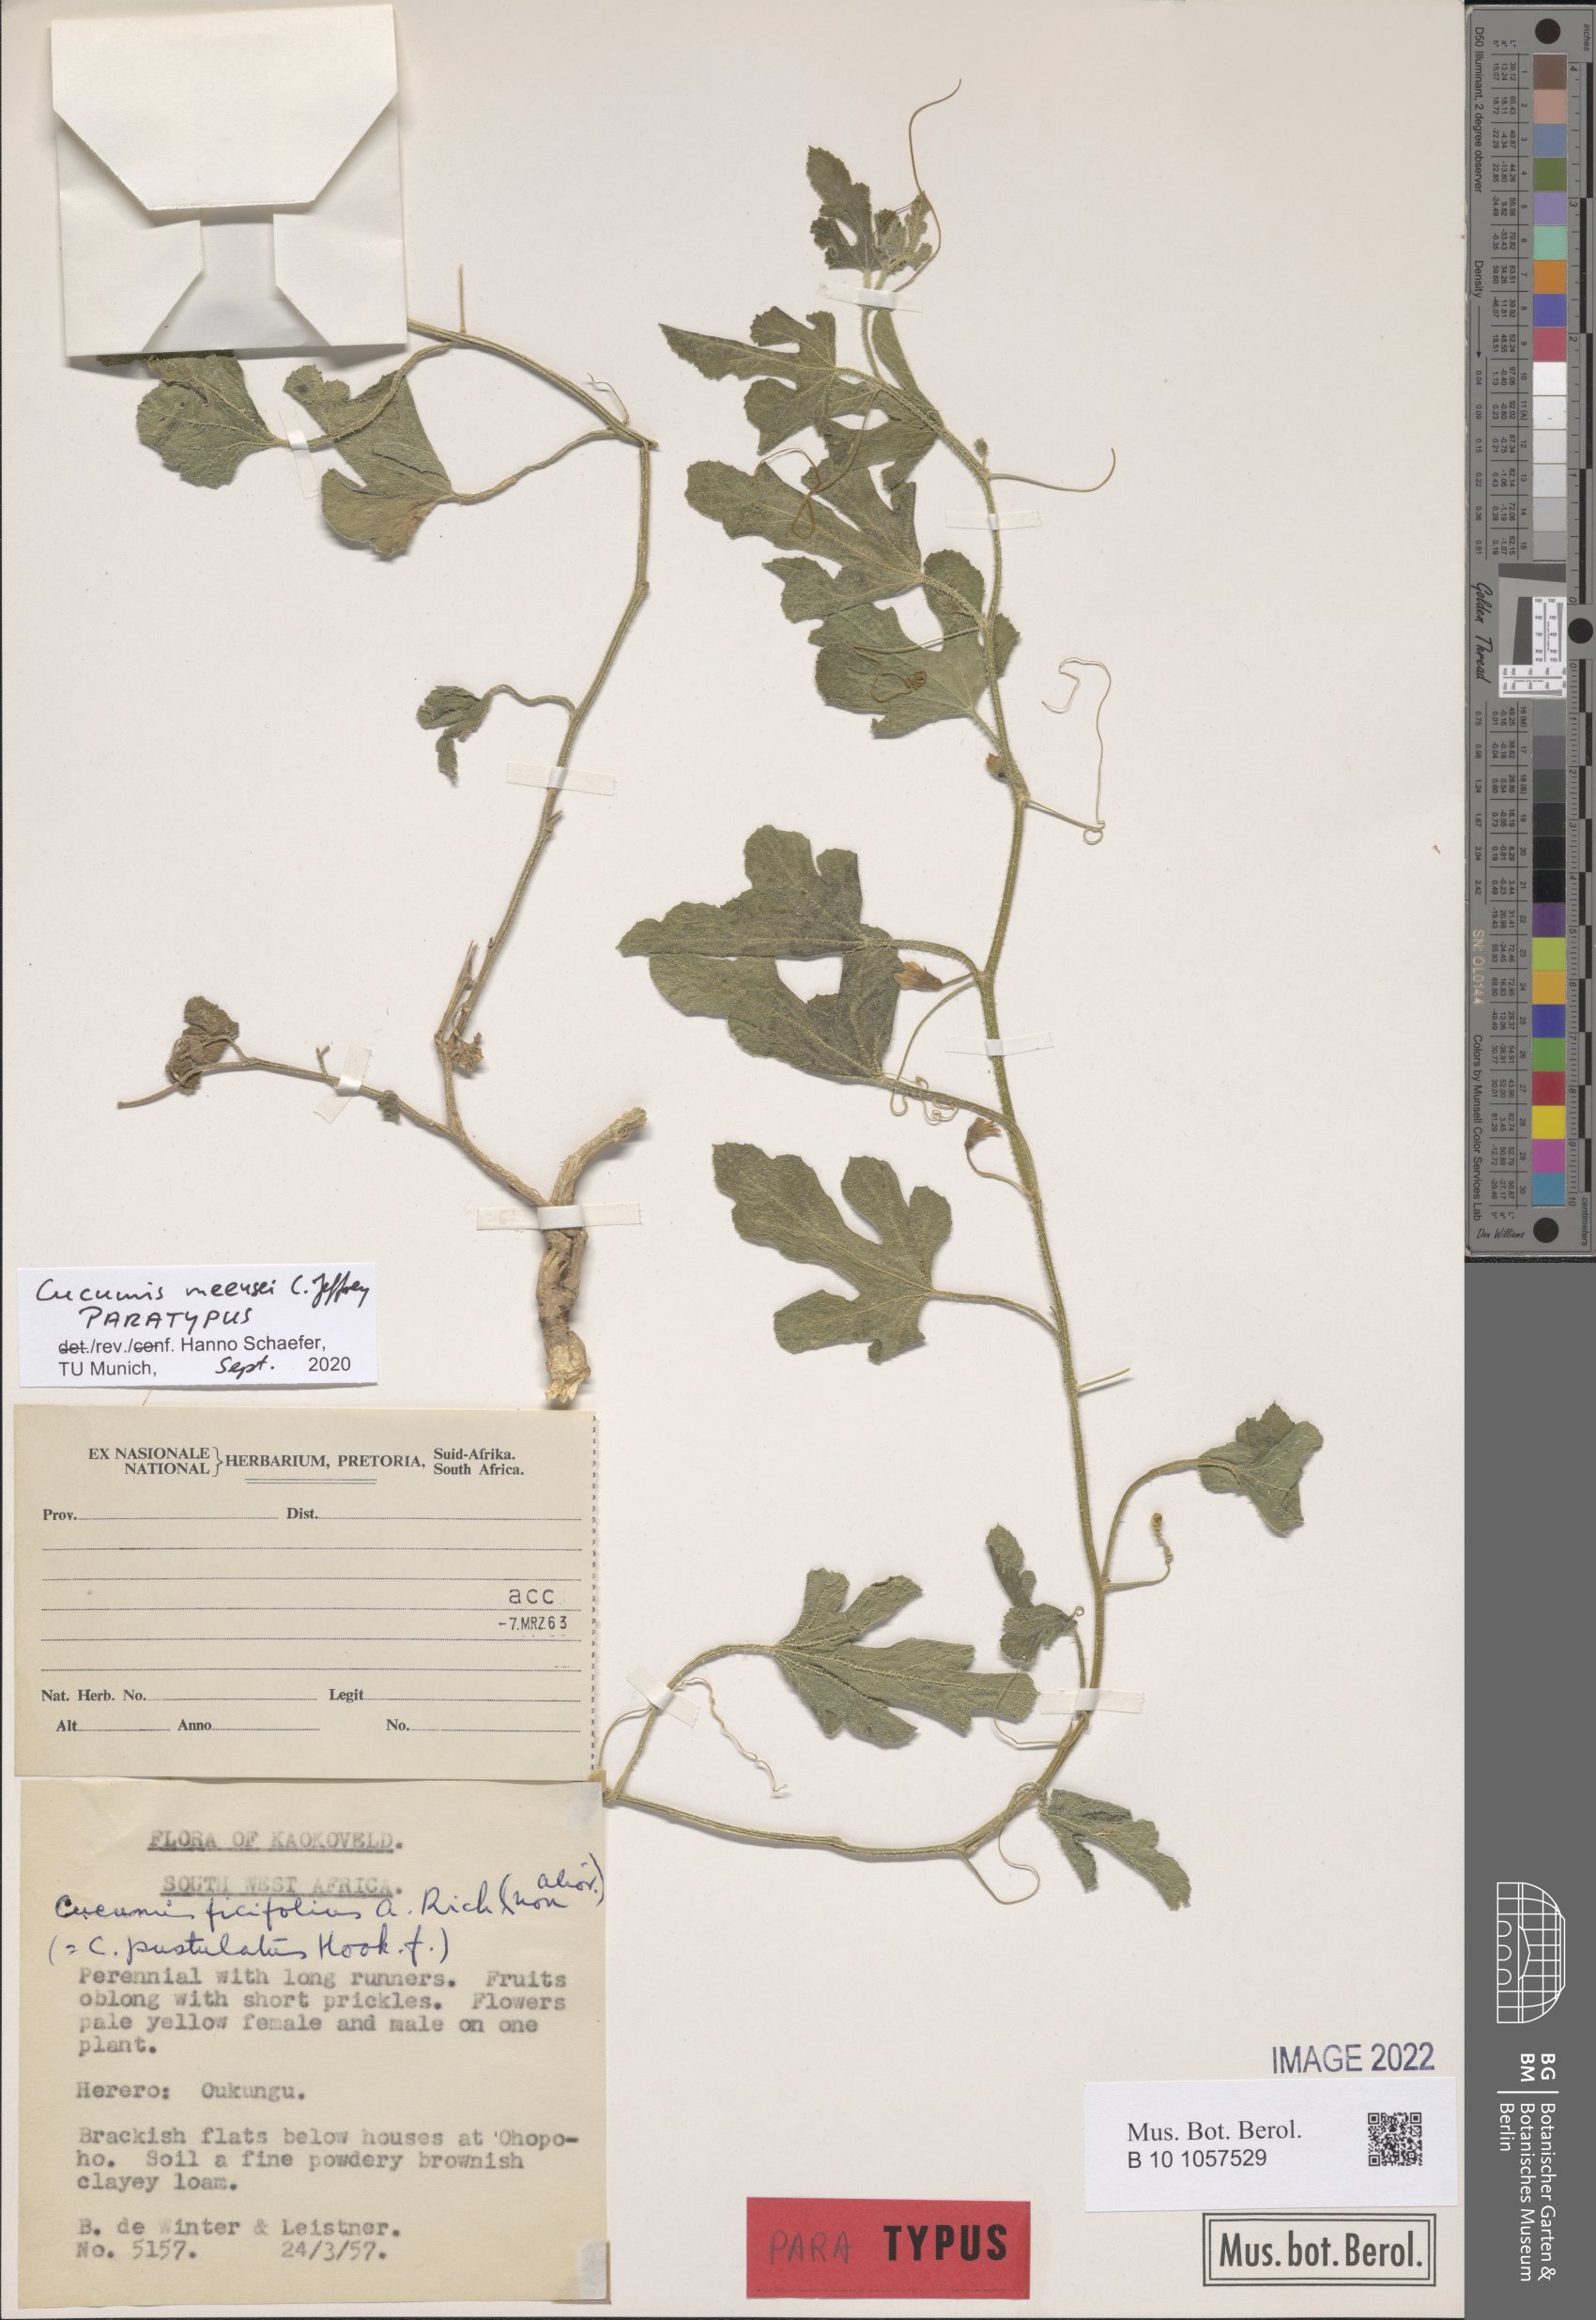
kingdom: Plantae
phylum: Tracheophyta
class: Magnoliopsida
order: Cucurbitales
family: Cucurbitaceae
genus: Cucumis
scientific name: Cucumis meeusei
